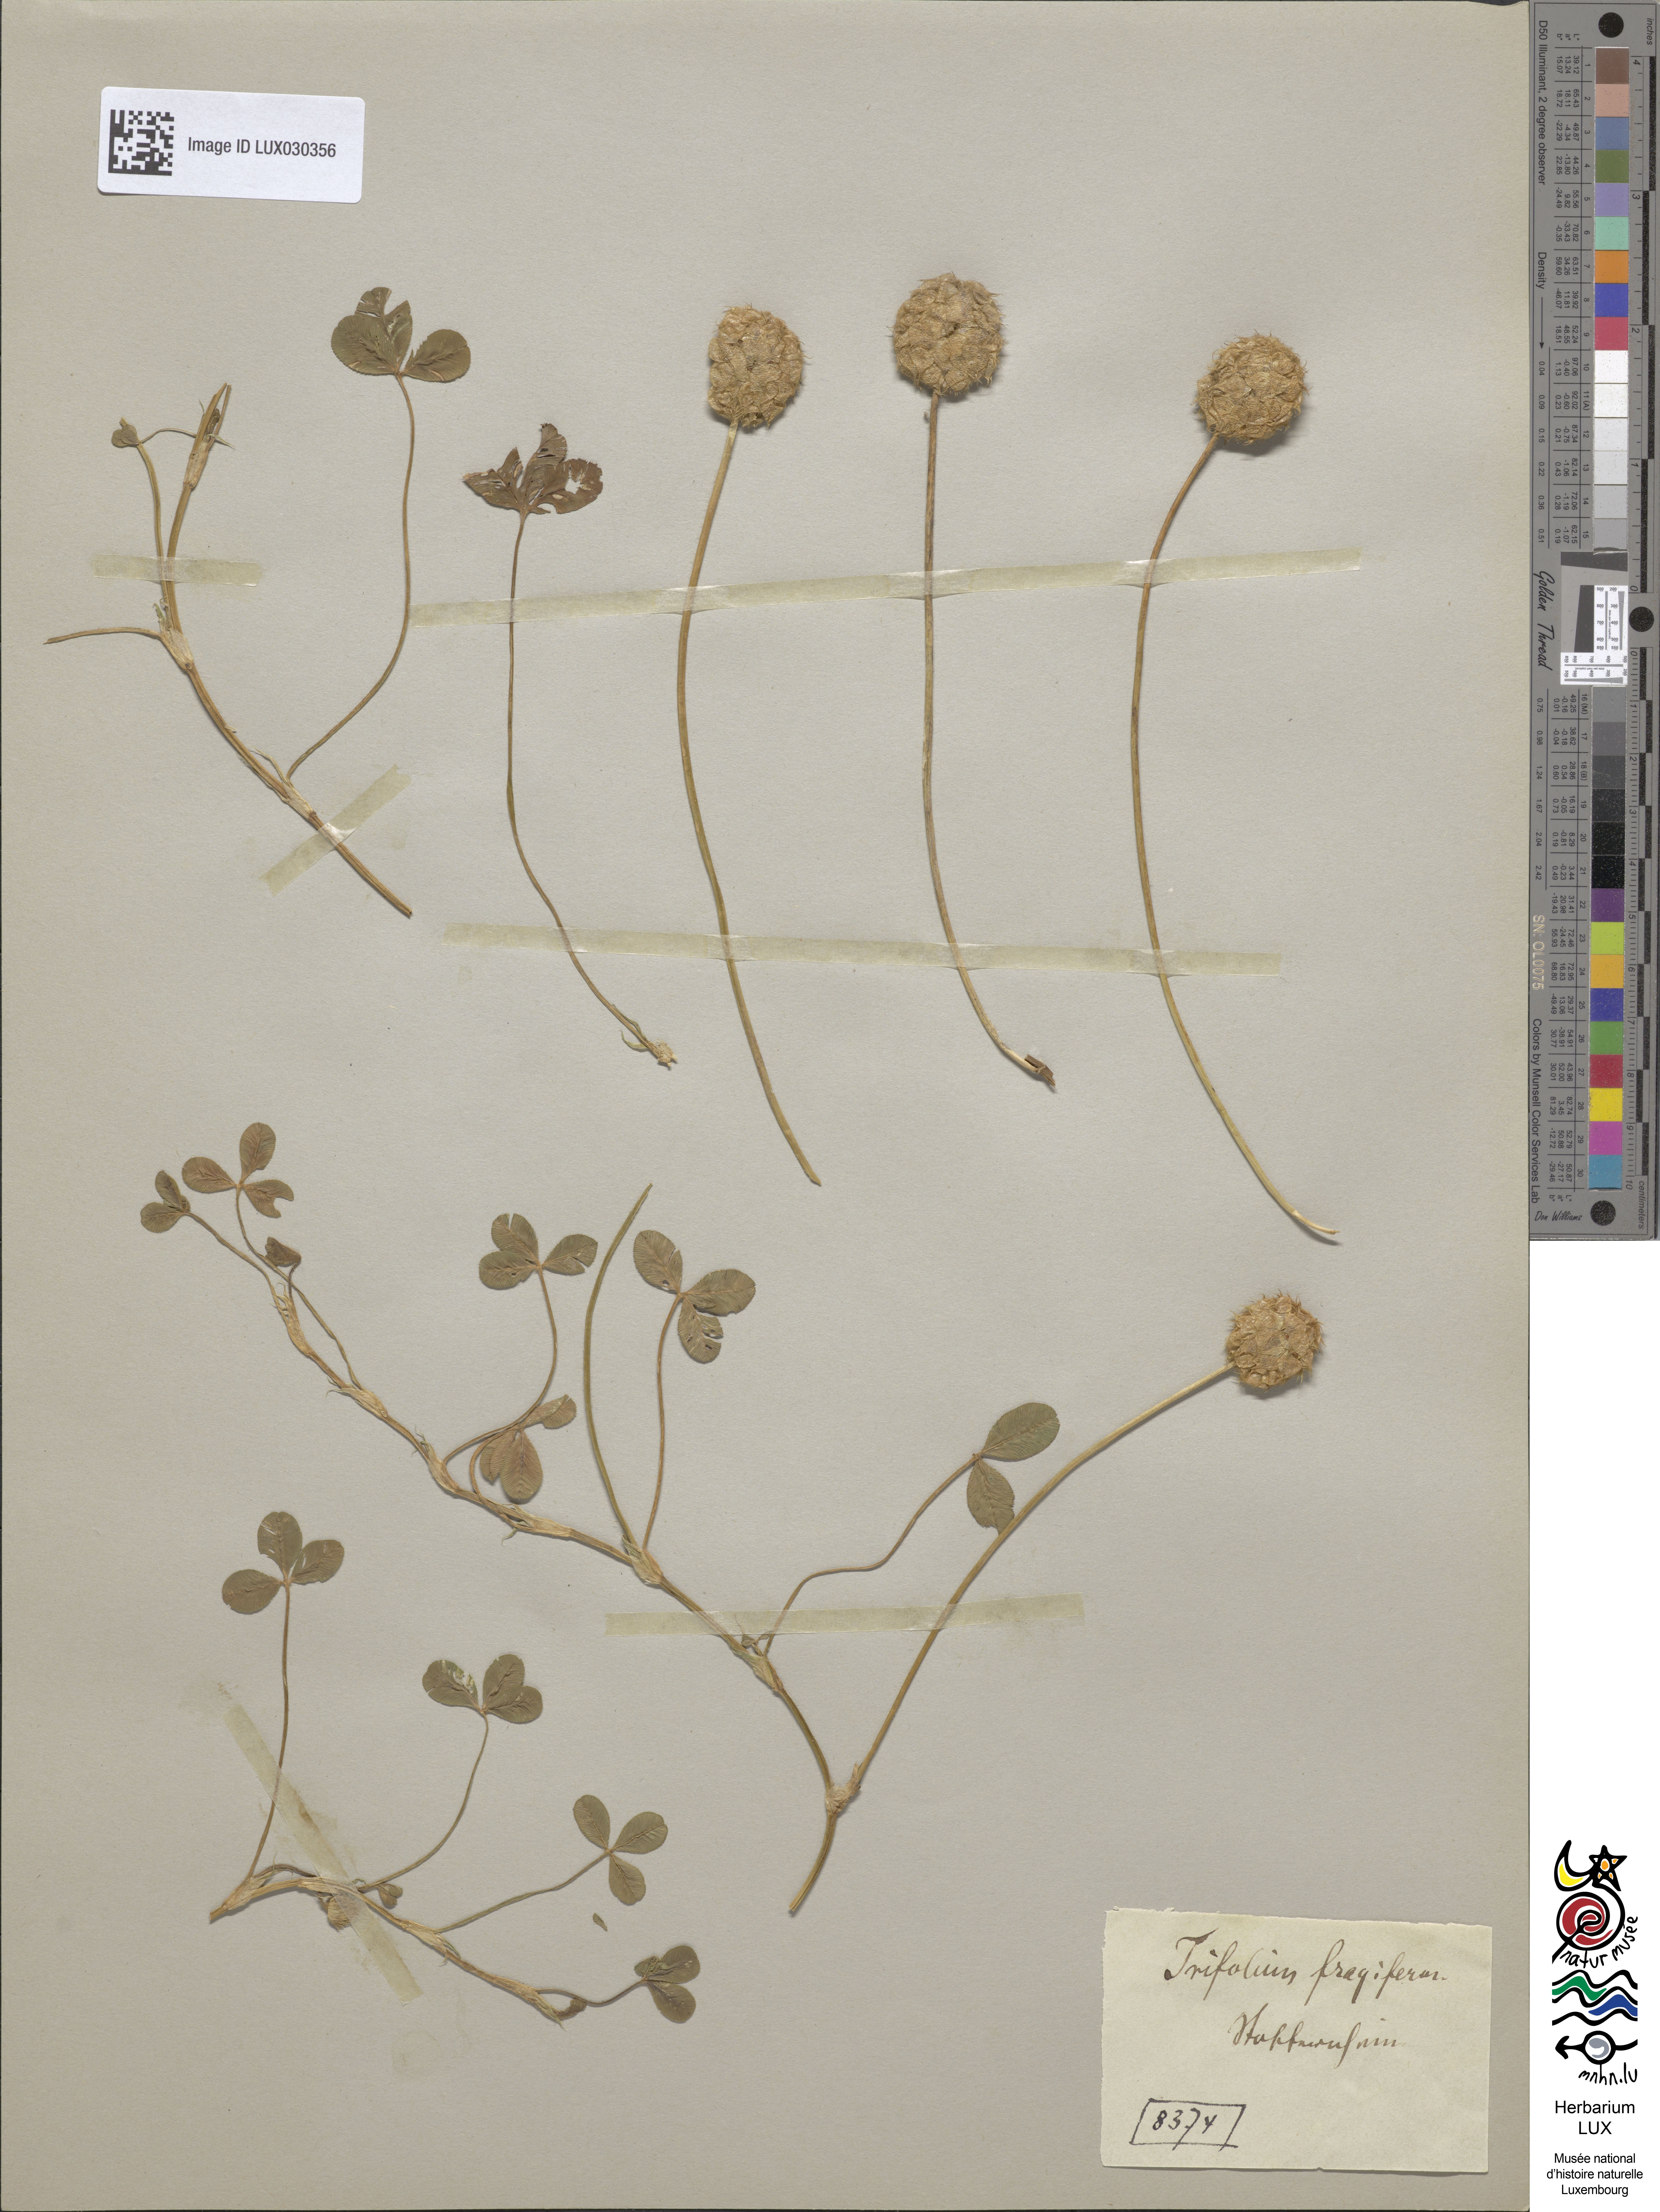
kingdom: Plantae
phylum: Tracheophyta
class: Magnoliopsida
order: Fabales
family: Fabaceae
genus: Trifolium
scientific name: Trifolium fragiferum
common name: Strawberry clover
